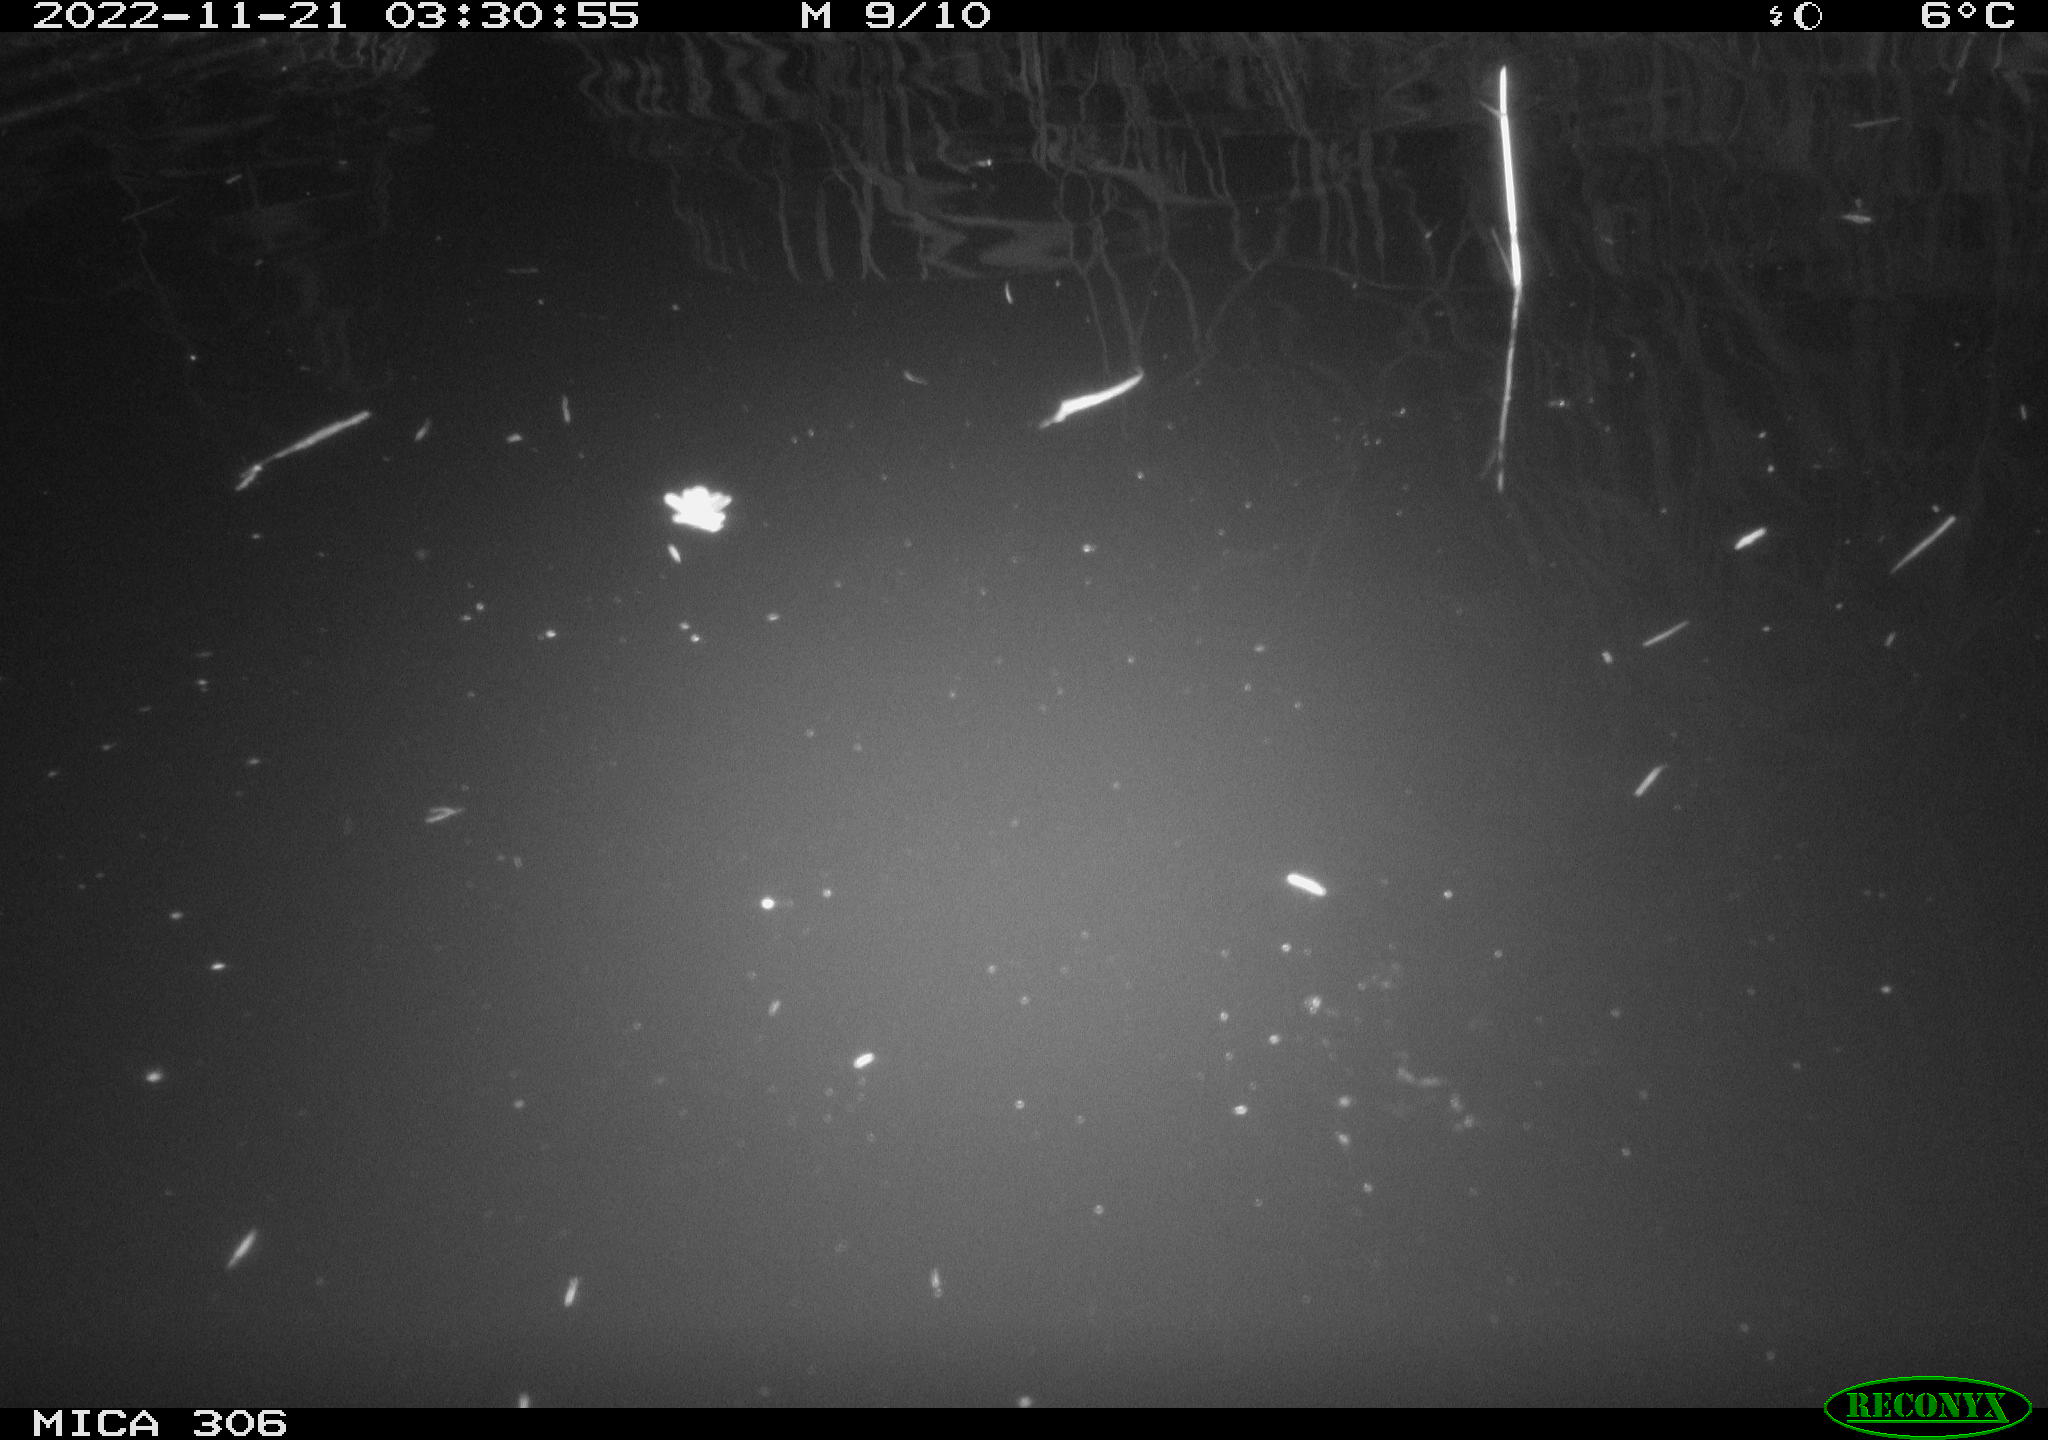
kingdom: Animalia
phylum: Chordata
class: Mammalia
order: Rodentia
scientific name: Rodentia
